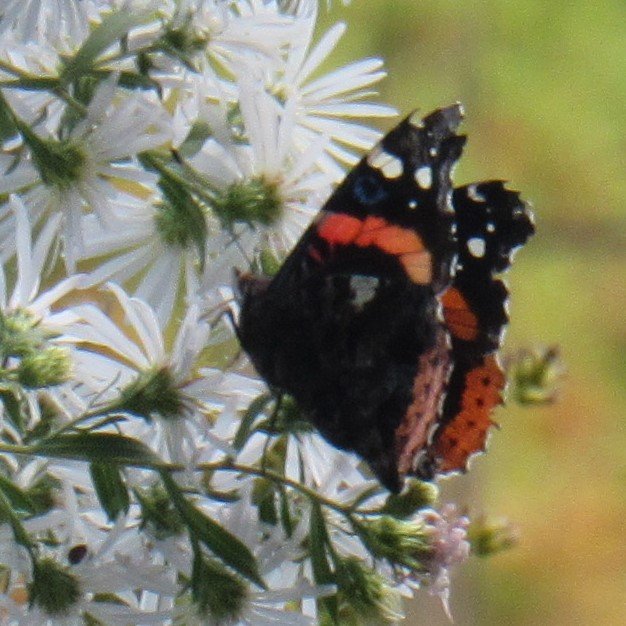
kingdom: Animalia
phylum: Arthropoda
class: Insecta
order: Lepidoptera
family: Nymphalidae
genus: Vanessa
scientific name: Vanessa atalanta
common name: Red Admiral
